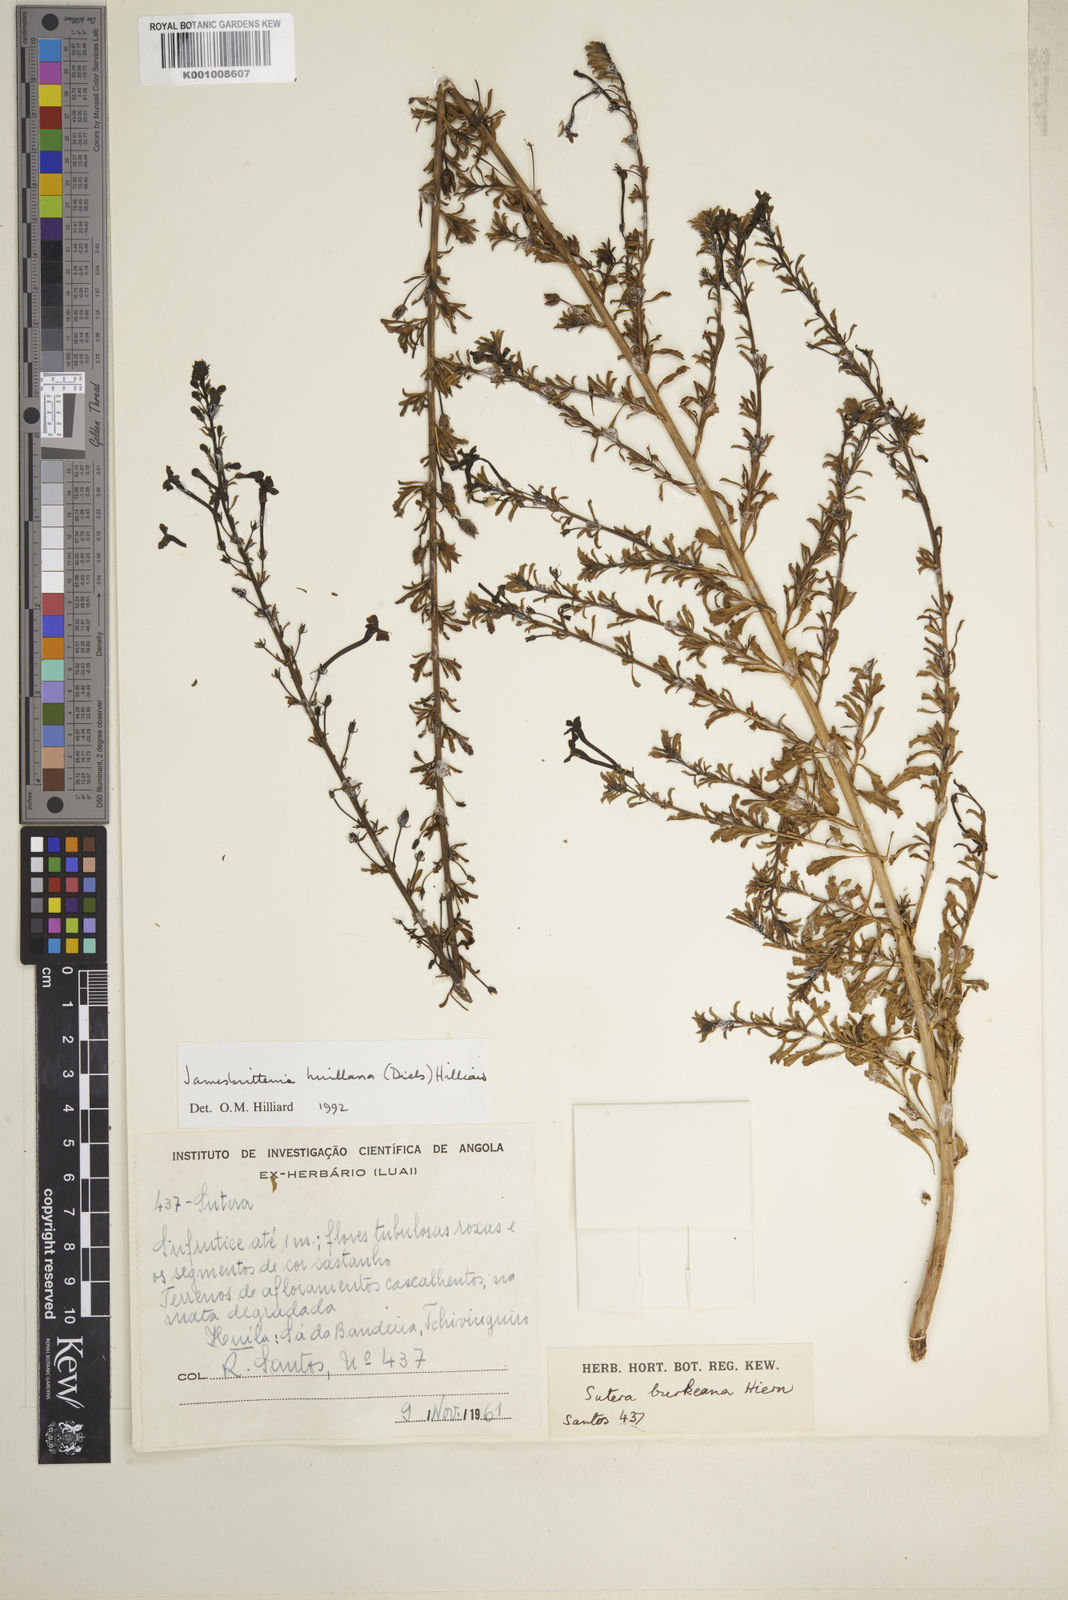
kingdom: Plantae
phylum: Tracheophyta
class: Magnoliopsida
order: Lamiales
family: Scrophulariaceae
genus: Jamesbrittenia
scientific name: Jamesbrittenia huillana
